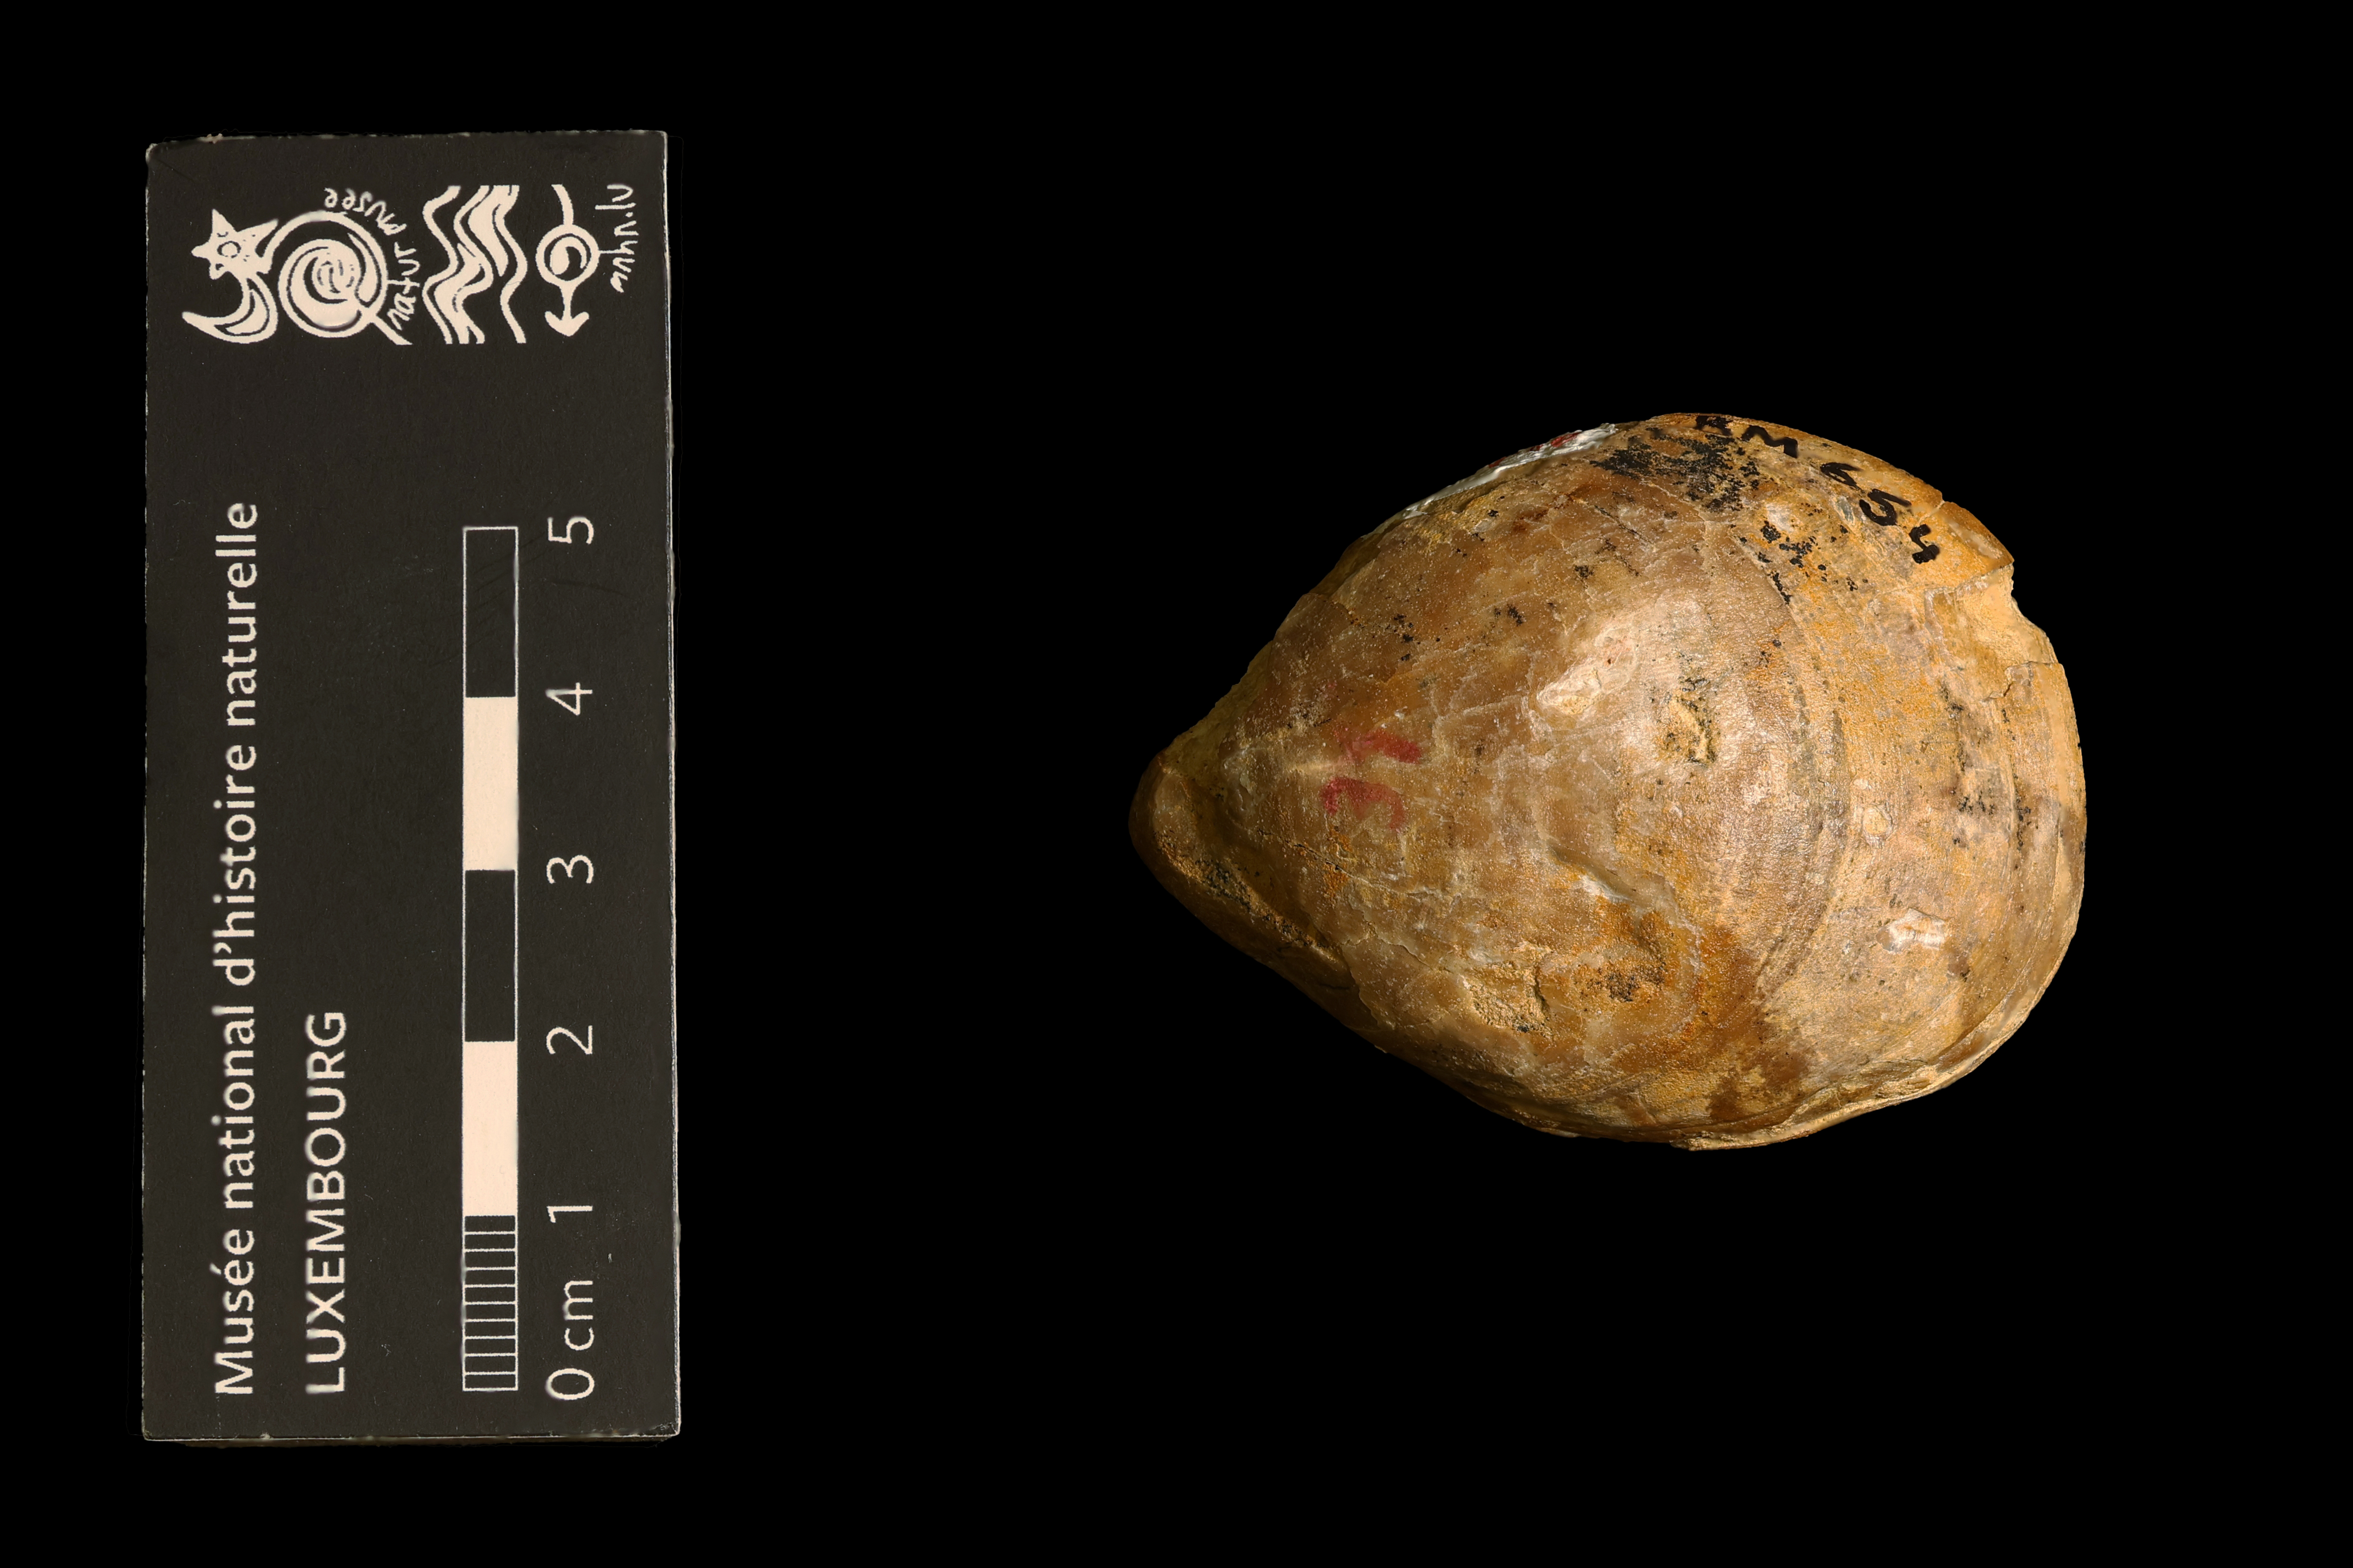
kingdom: Animalia
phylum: Brachiopoda
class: Rhynchonellata
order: Terebratulida
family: Hegathyridae
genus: Monsardithyris
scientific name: Monsardithyris Terebratula ventricosa
